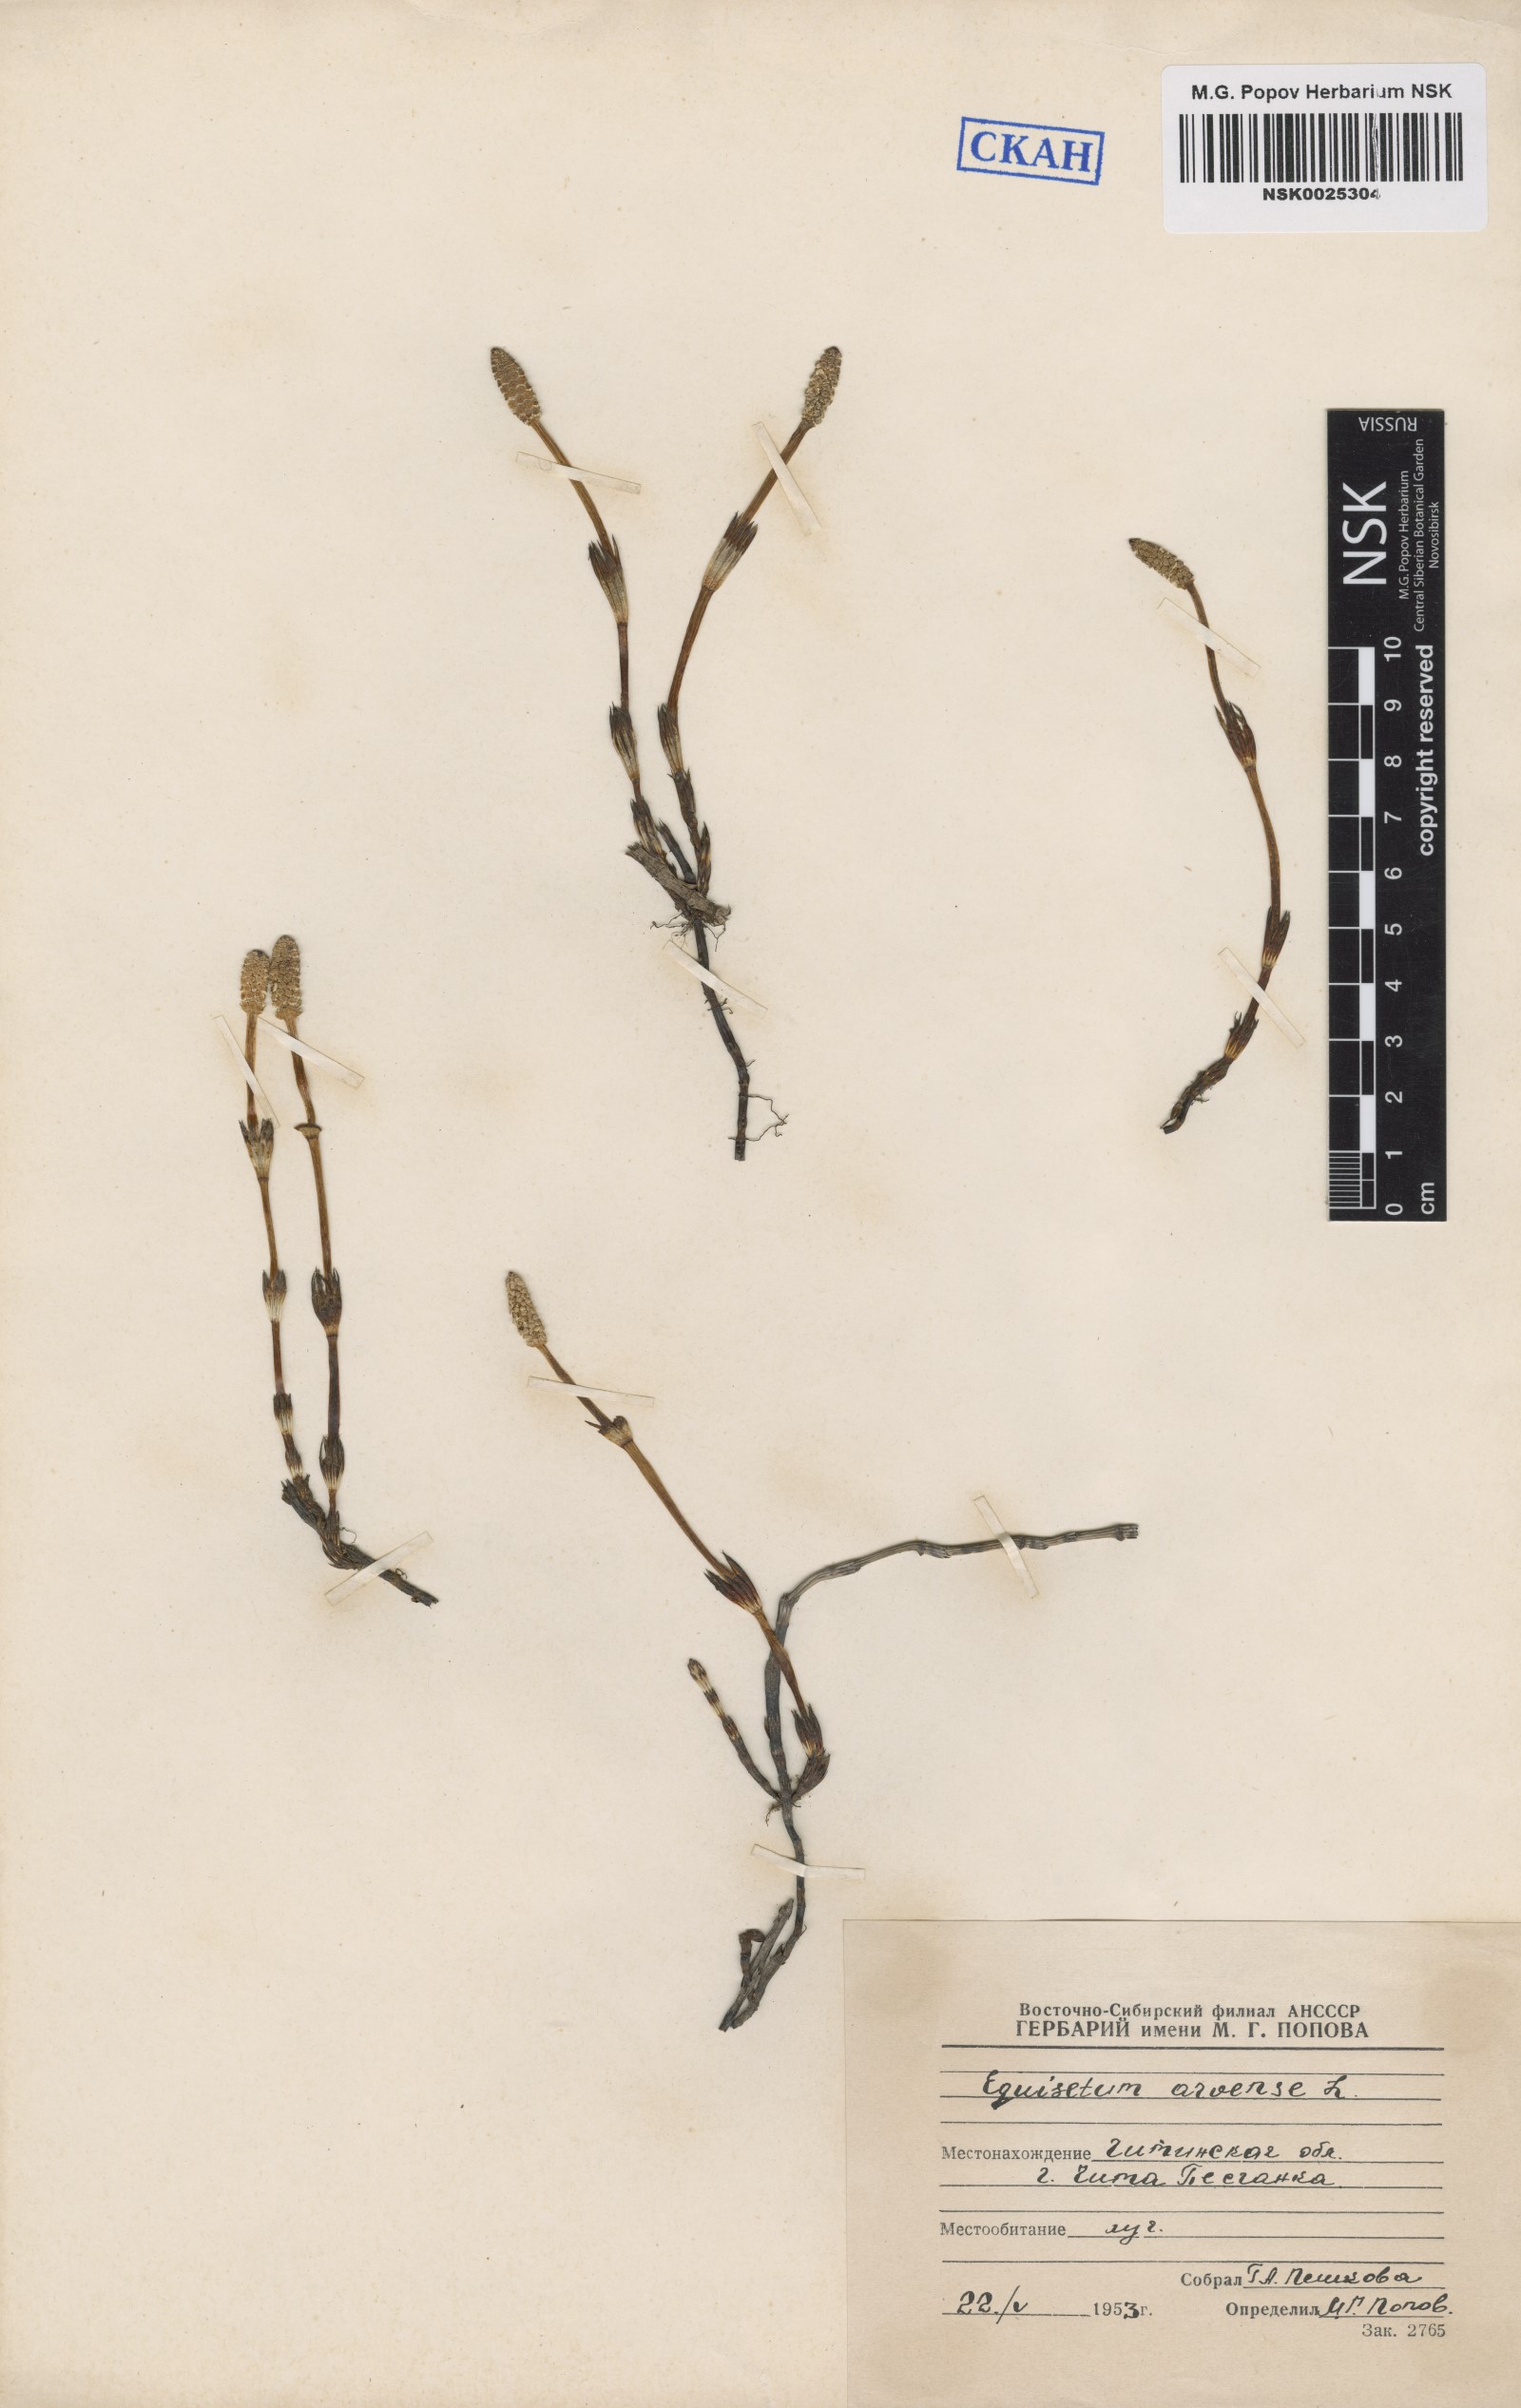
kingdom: Plantae
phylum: Tracheophyta
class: Polypodiopsida
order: Equisetales
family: Equisetaceae
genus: Equisetum
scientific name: Equisetum arvense
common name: Field horsetail
